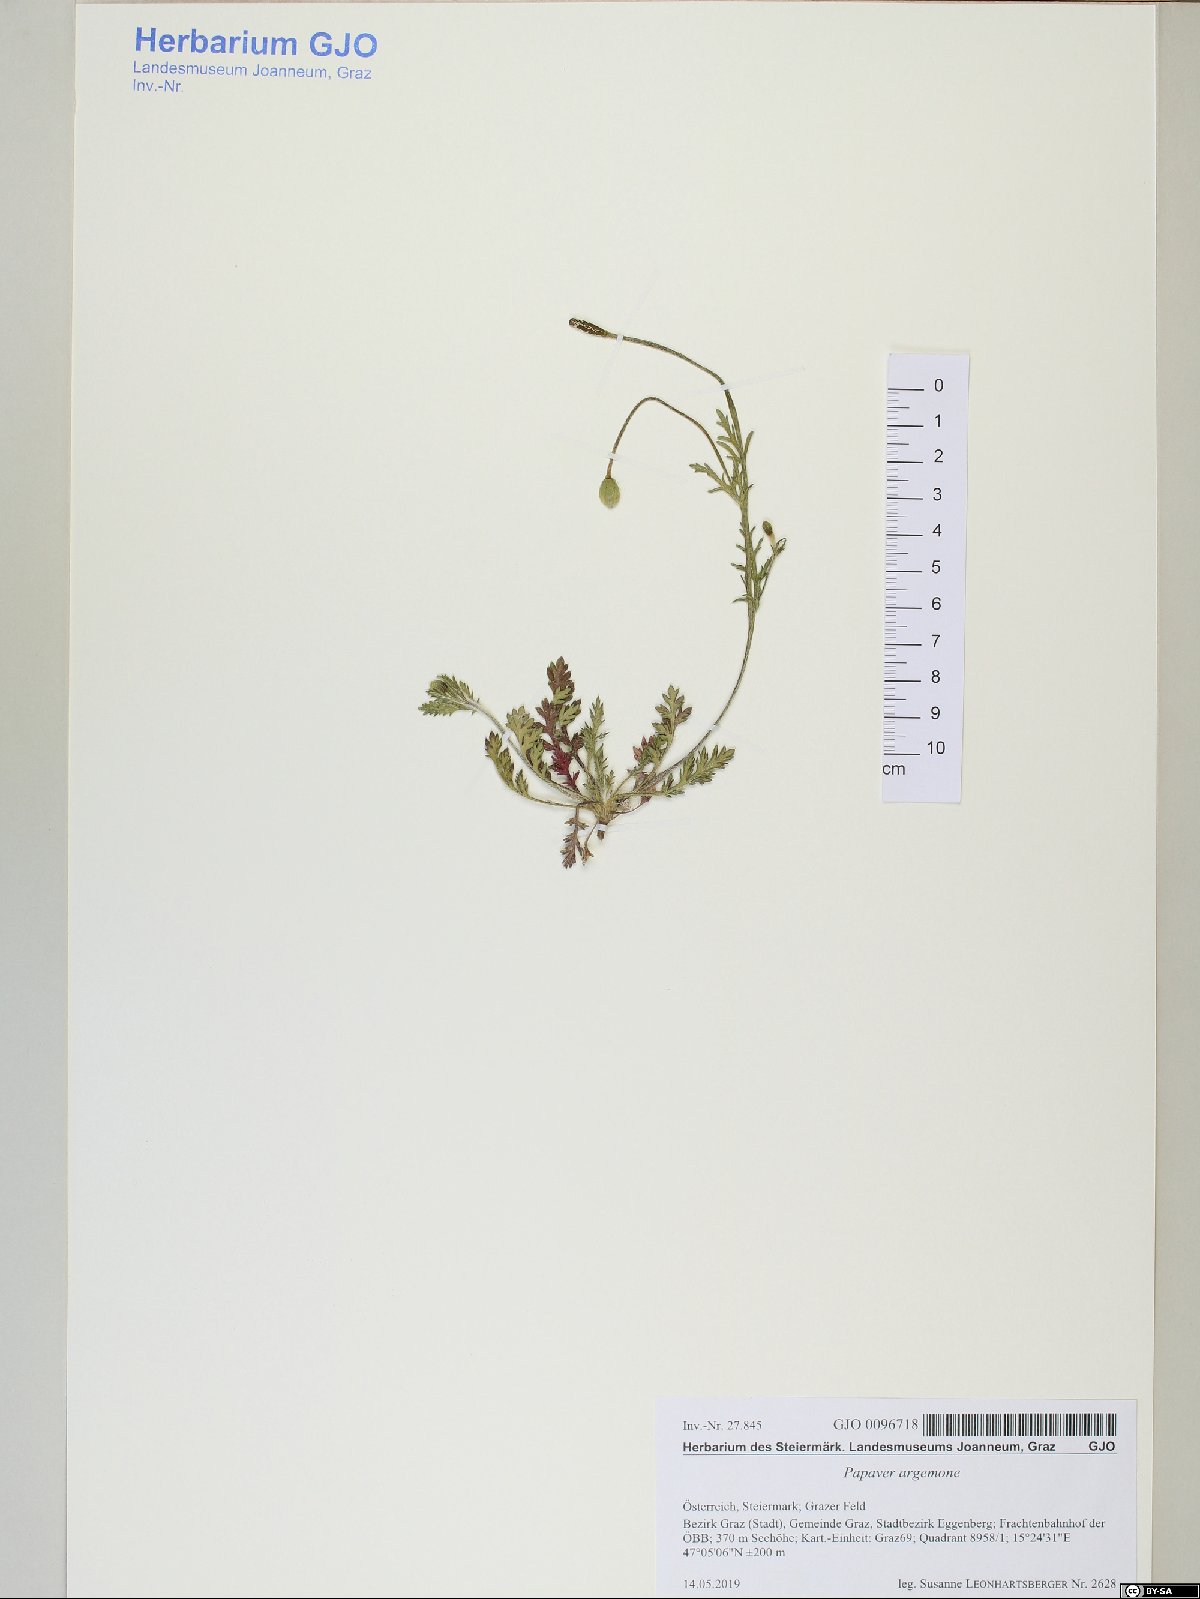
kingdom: Plantae
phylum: Tracheophyta
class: Magnoliopsida
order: Ranunculales
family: Papaveraceae
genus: Roemeria
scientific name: Roemeria argemone
